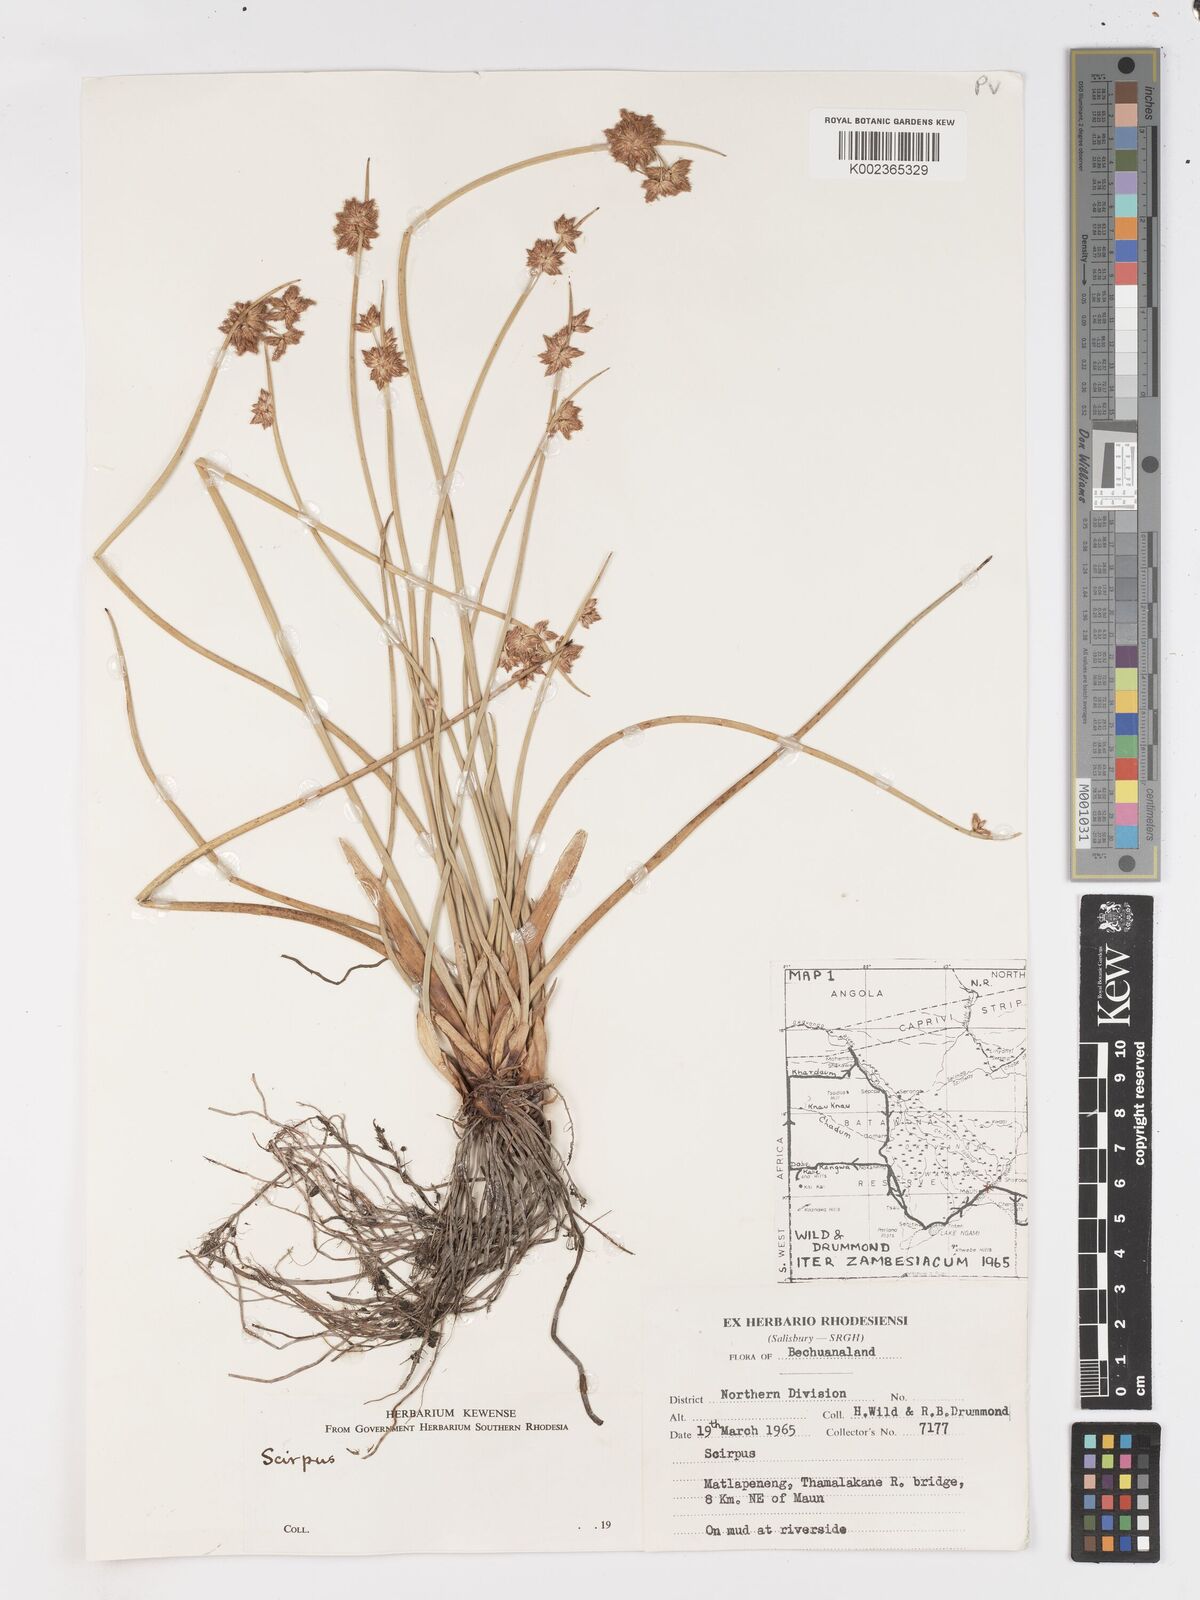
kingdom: Plantae
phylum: Tracheophyta
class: Liliopsida
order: Poales
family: Cyperaceae
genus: Schoenoplectus
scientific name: Schoenoplectus
